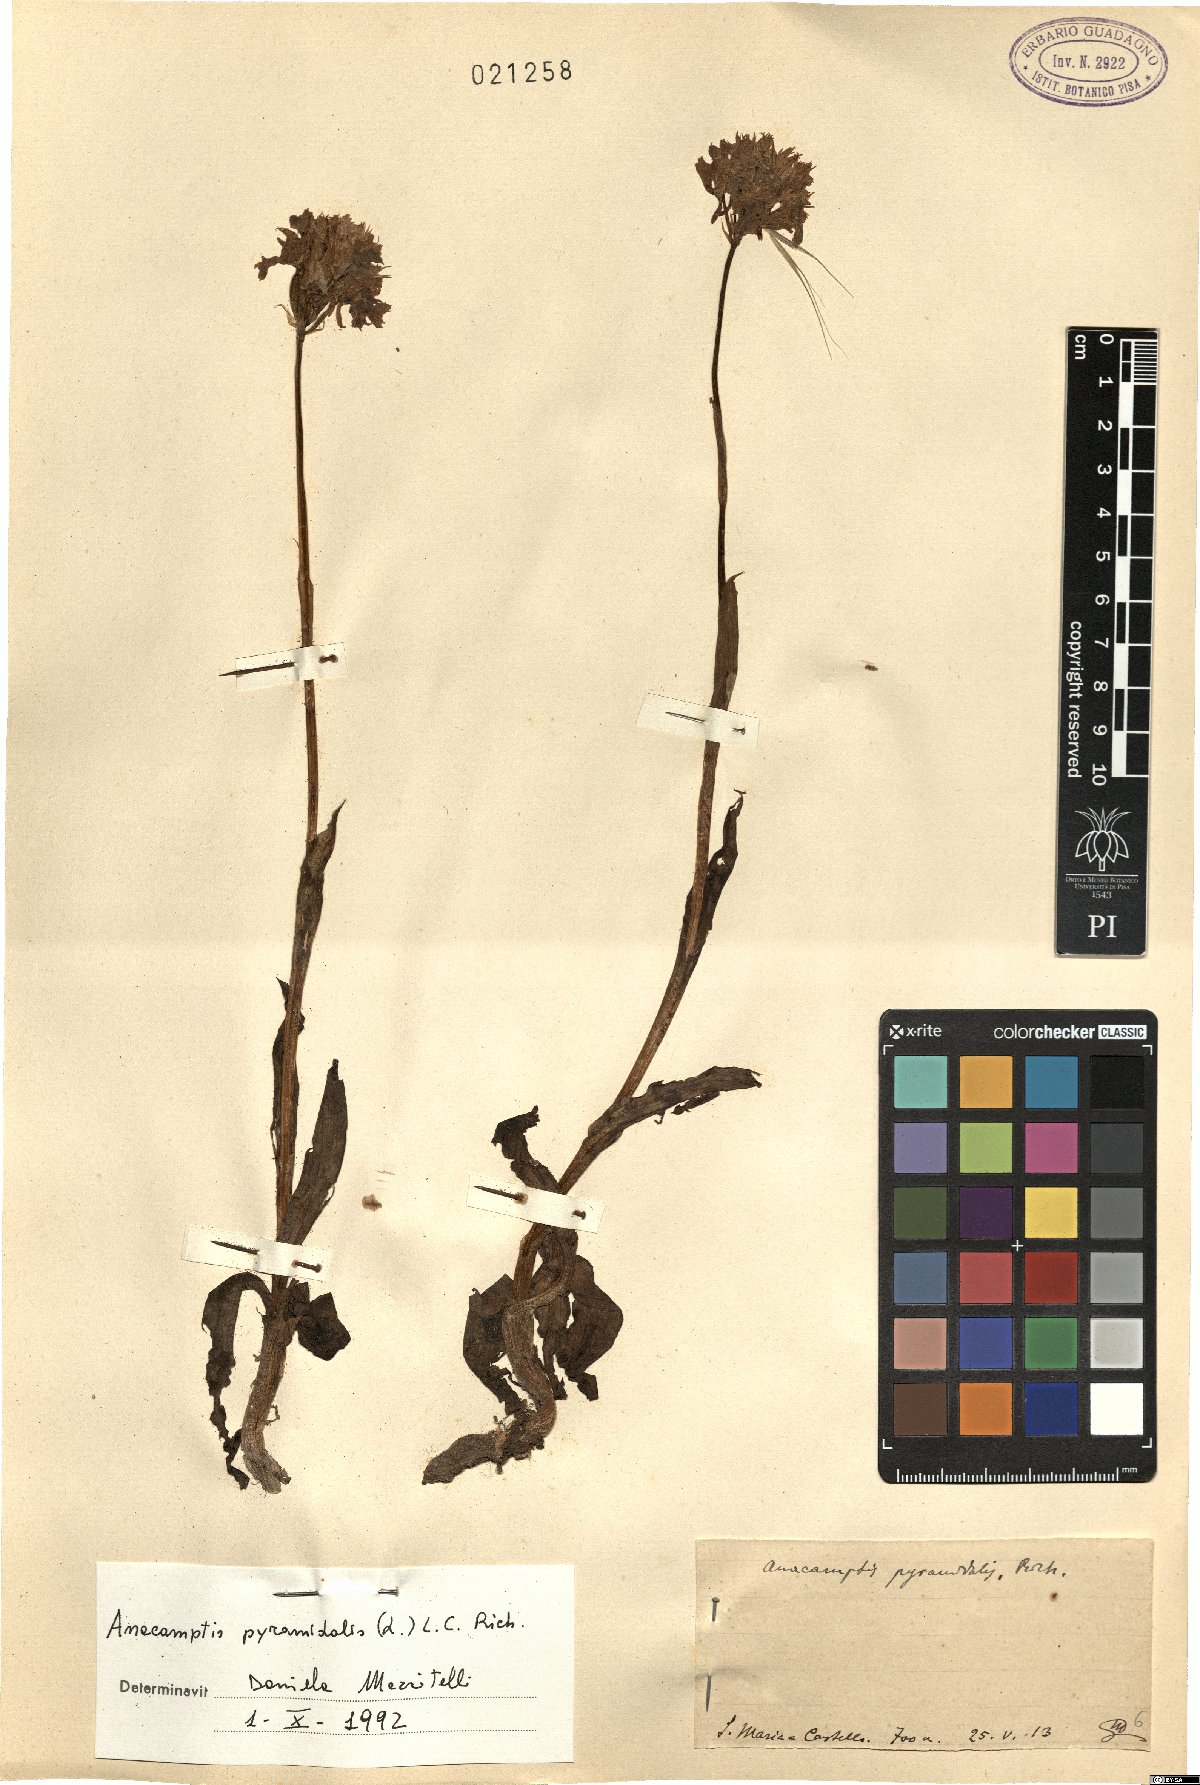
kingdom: Plantae
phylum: Tracheophyta
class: Liliopsida
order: Asparagales
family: Orchidaceae
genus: Anacamptis
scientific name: Anacamptis pyramidalis
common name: Pyramidal orchid
